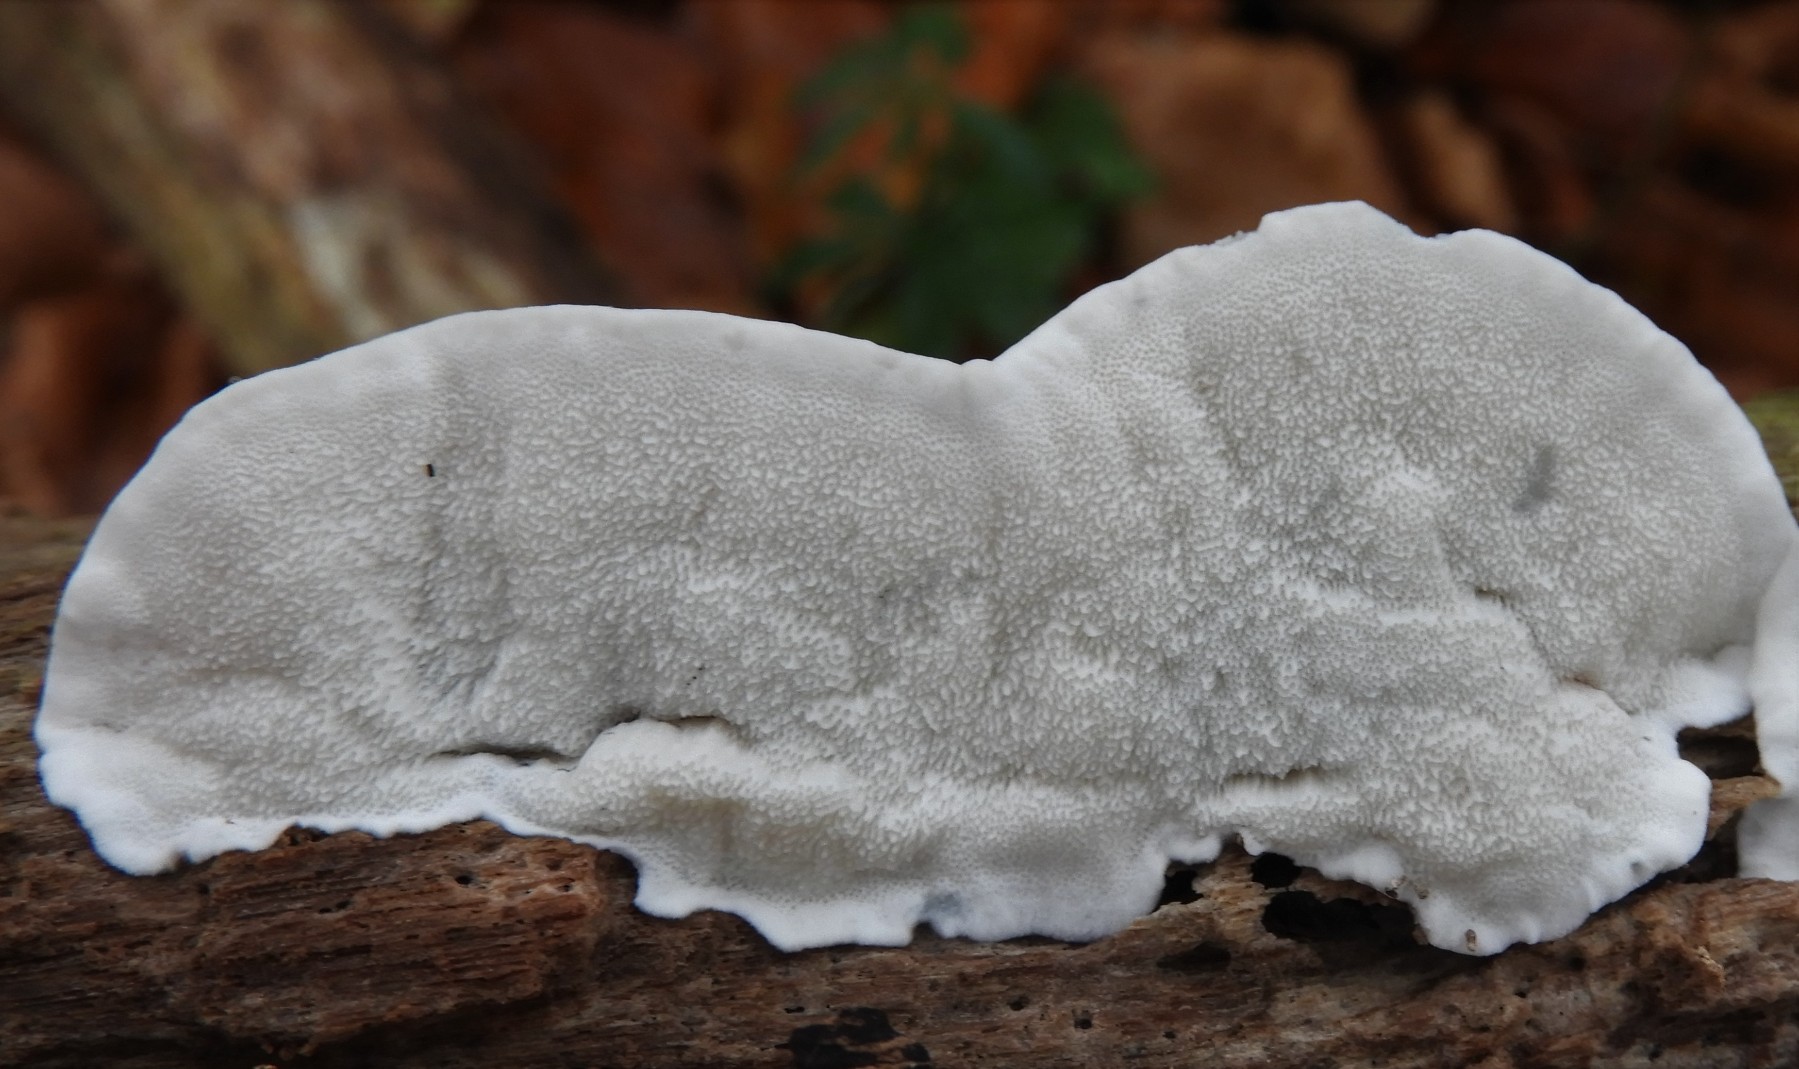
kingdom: Fungi
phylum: Basidiomycota
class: Agaricomycetes
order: Polyporales
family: Polyporaceae
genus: Cyanosporus
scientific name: Cyanosporus caesius
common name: blålig kødporesvamp
